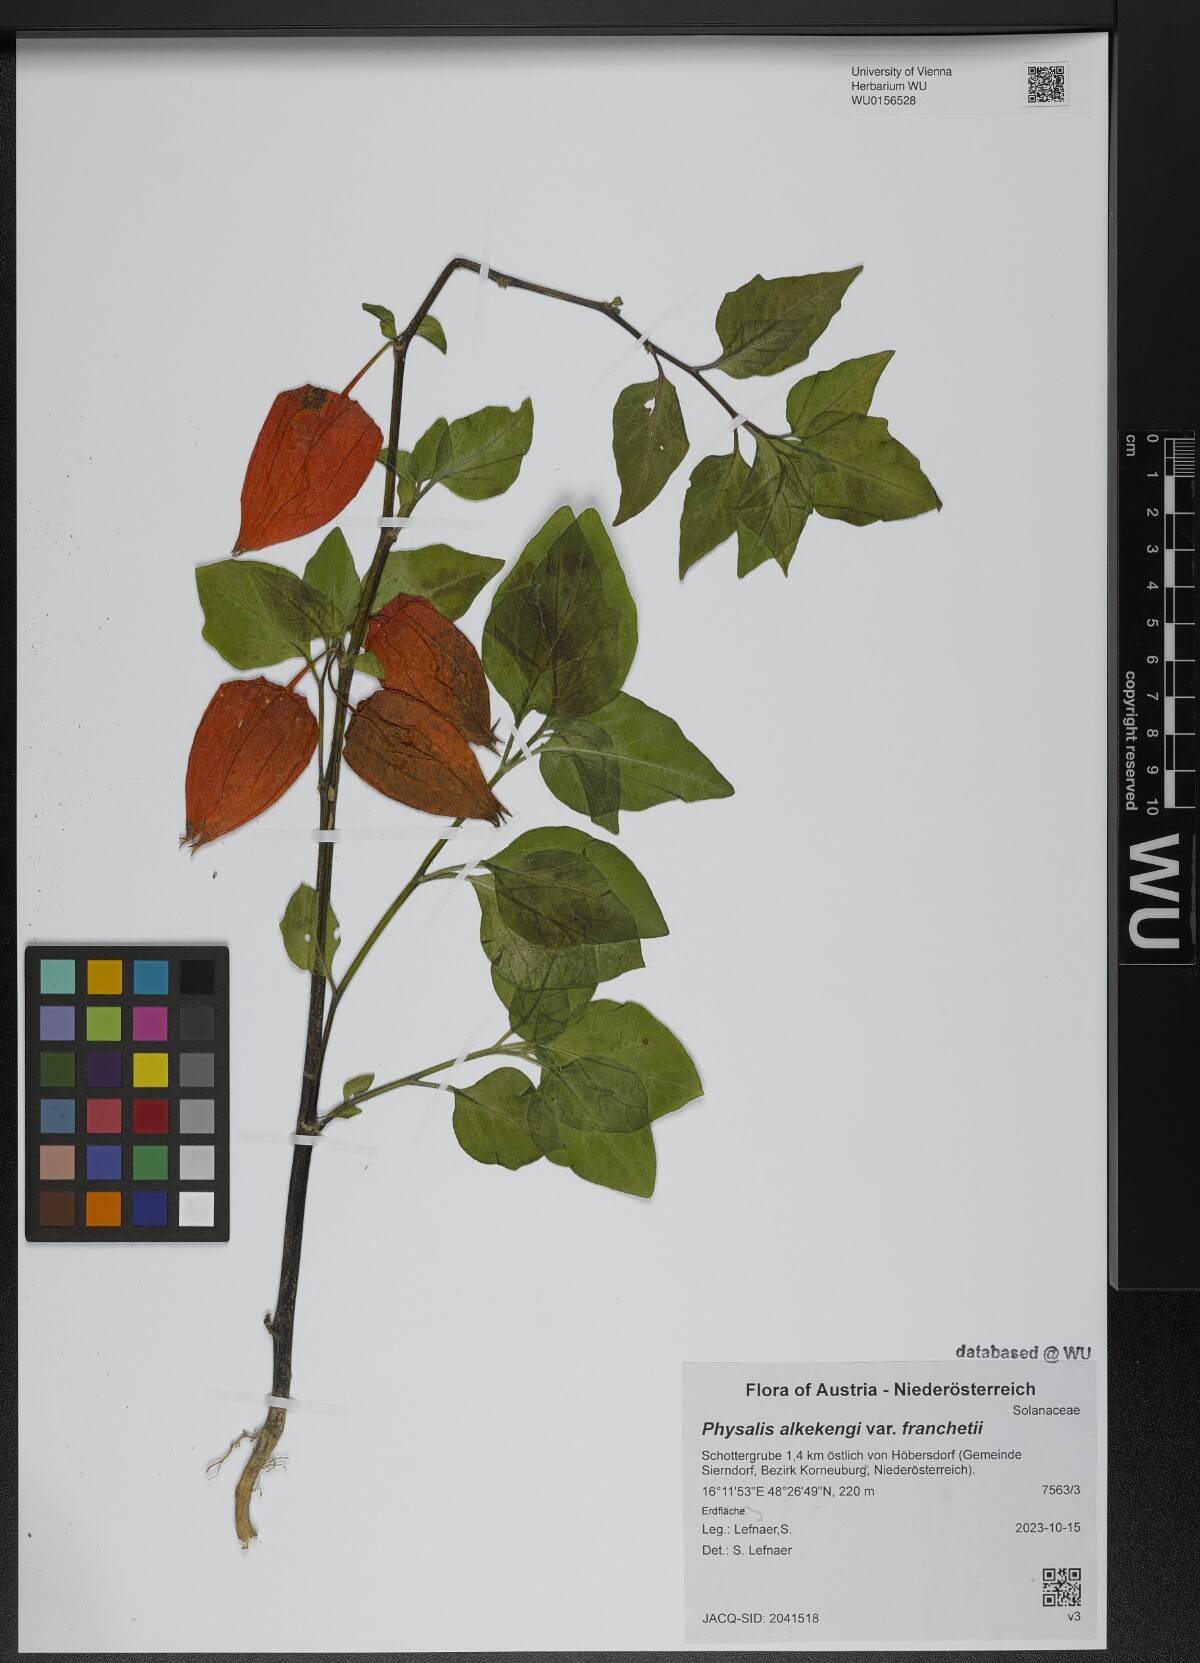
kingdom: Plantae
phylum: Tracheophyta
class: Magnoliopsida
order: Solanales
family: Solanaceae
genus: Alkekengi
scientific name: Alkekengi officinarum
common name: Japanese-lantern
